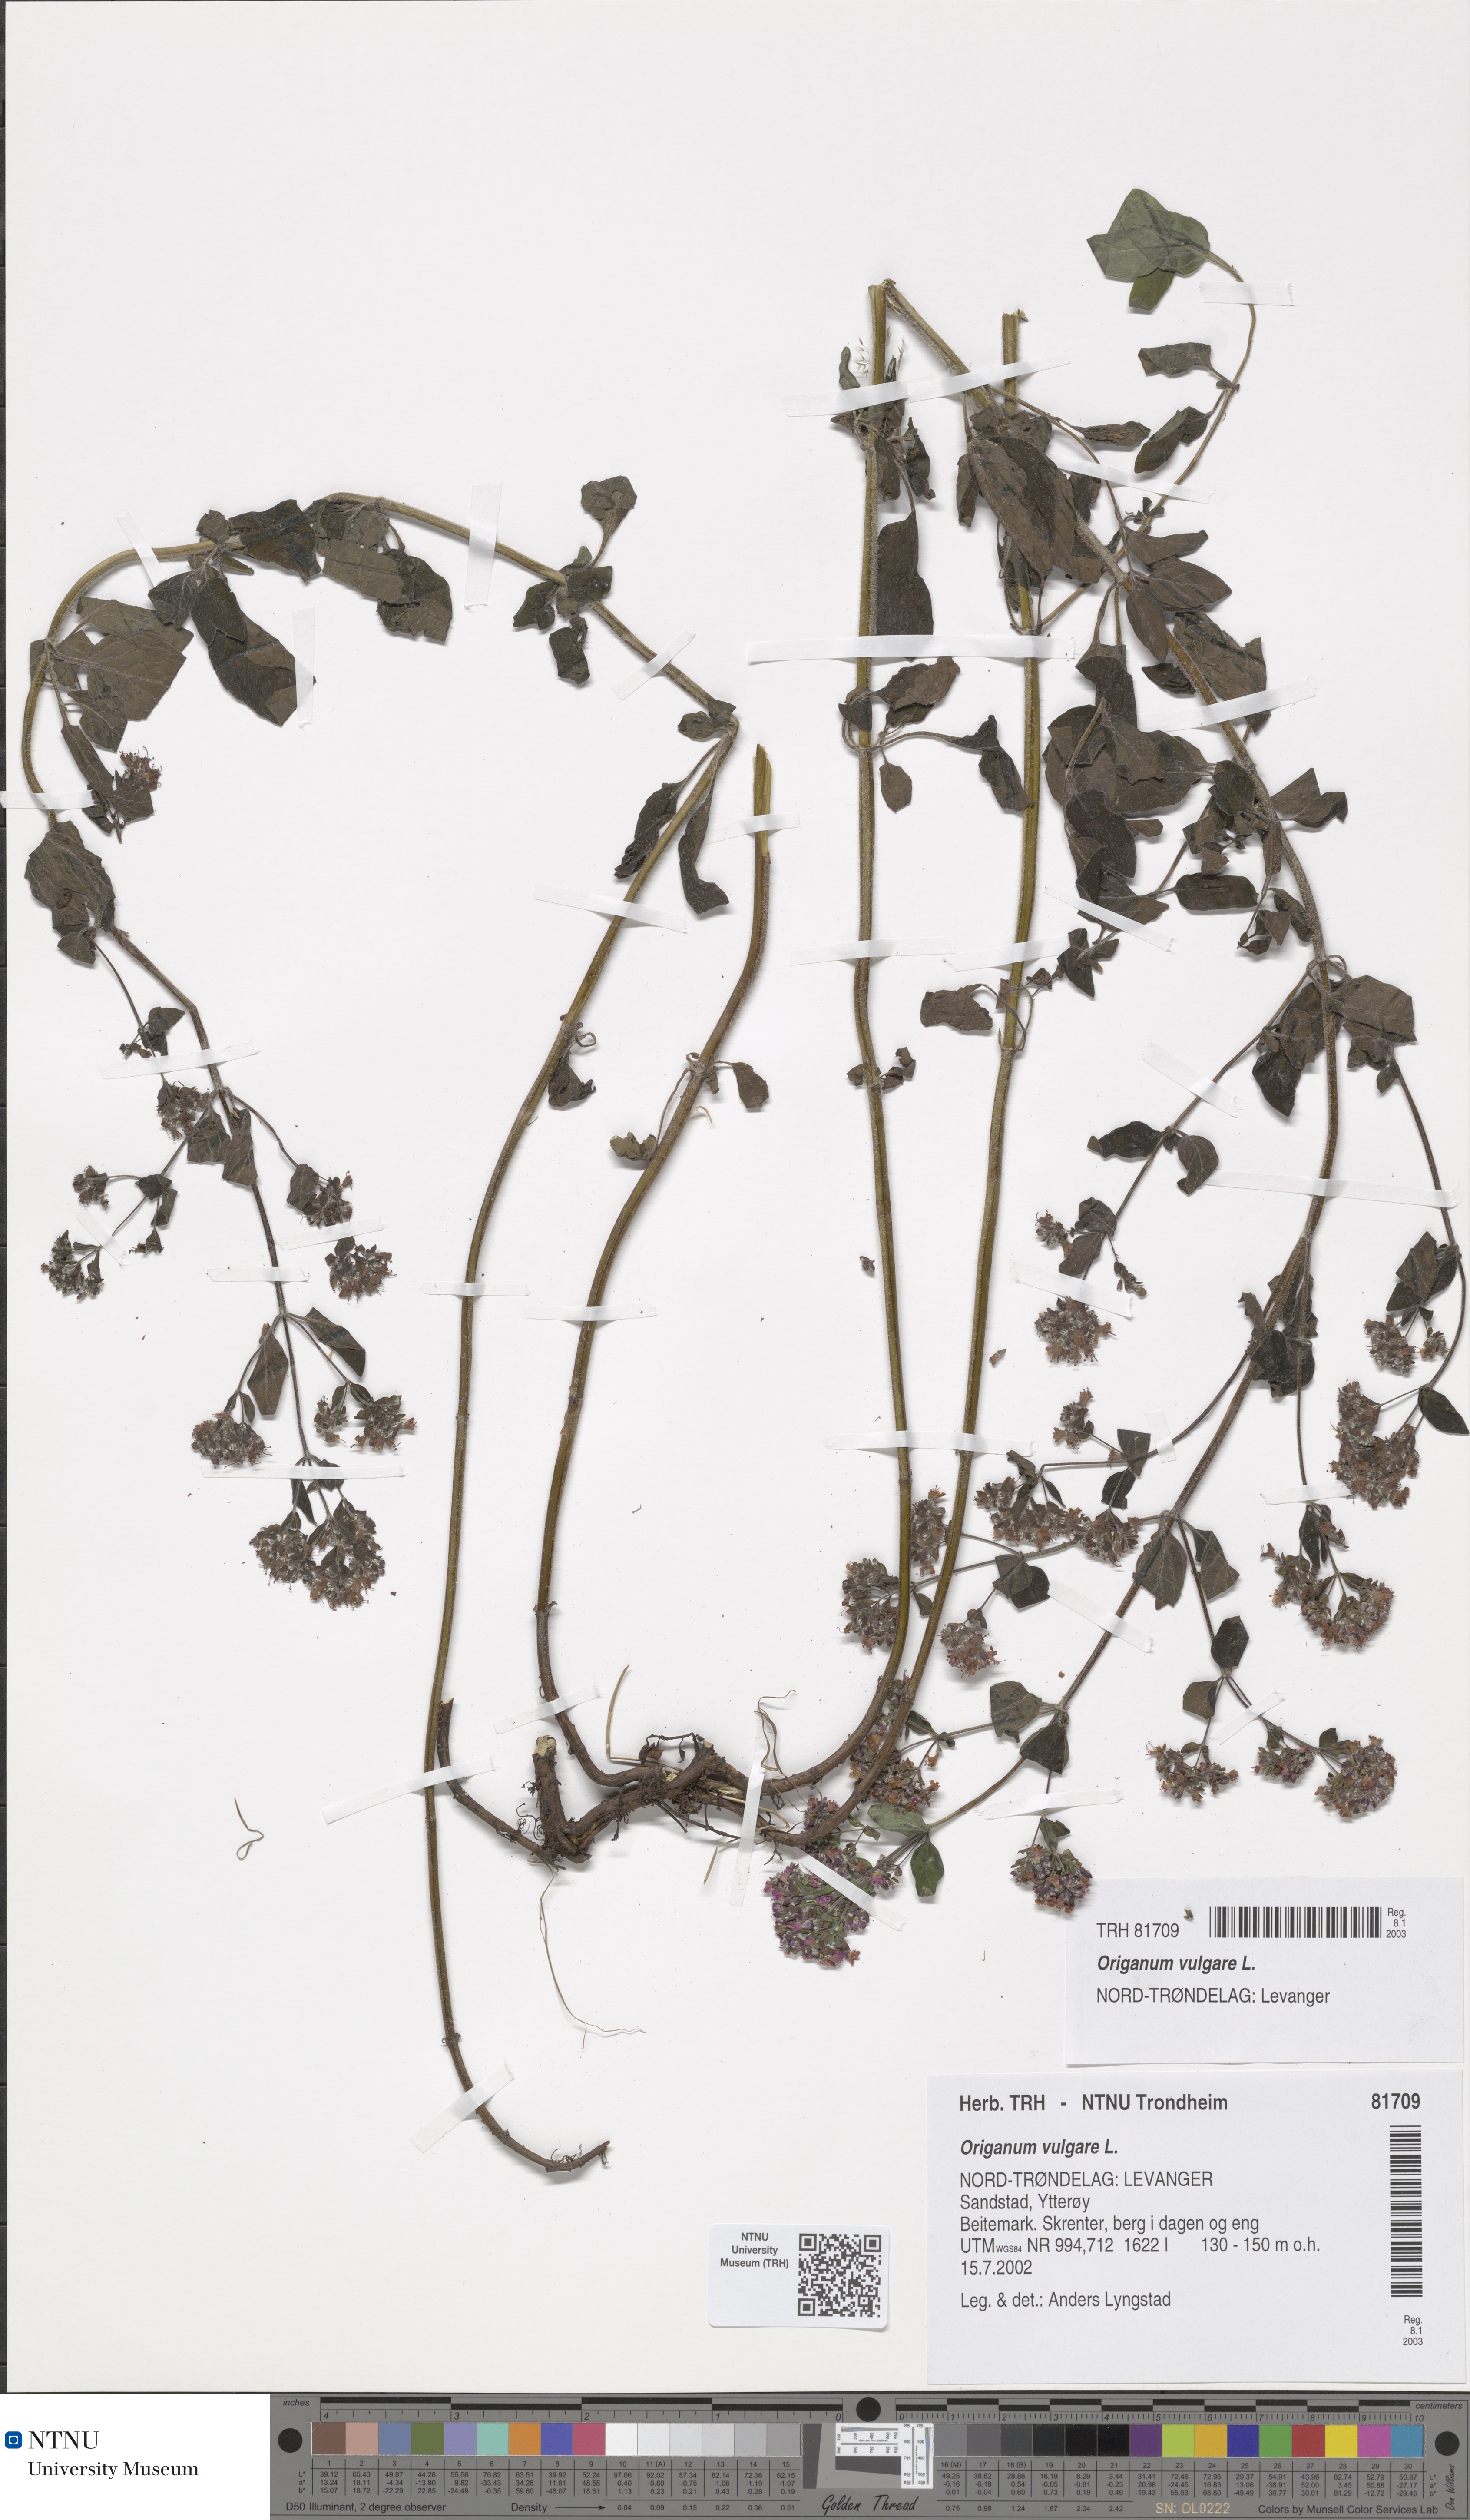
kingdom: Plantae
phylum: Tracheophyta
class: Magnoliopsida
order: Lamiales
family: Lamiaceae
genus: Origanum
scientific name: Origanum vulgare
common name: Wild marjoram
